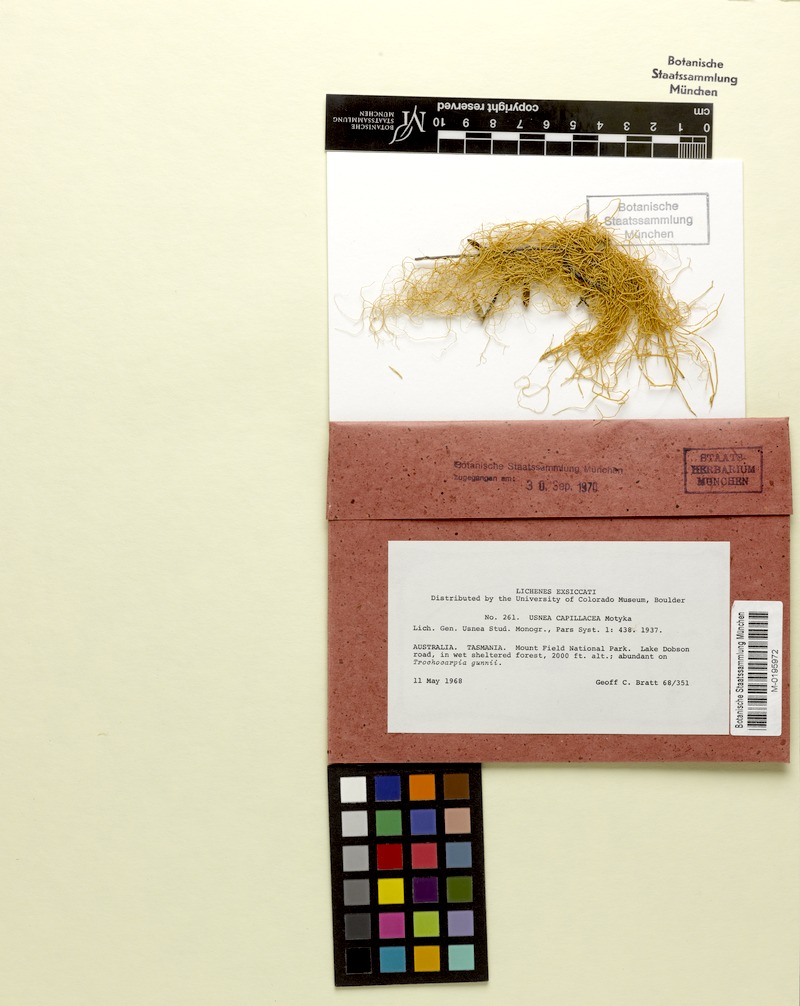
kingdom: Fungi
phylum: Ascomycota
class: Lecanoromycetes
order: Lecanorales
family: Parmeliaceae
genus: Usnea
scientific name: Usnea capillacea
